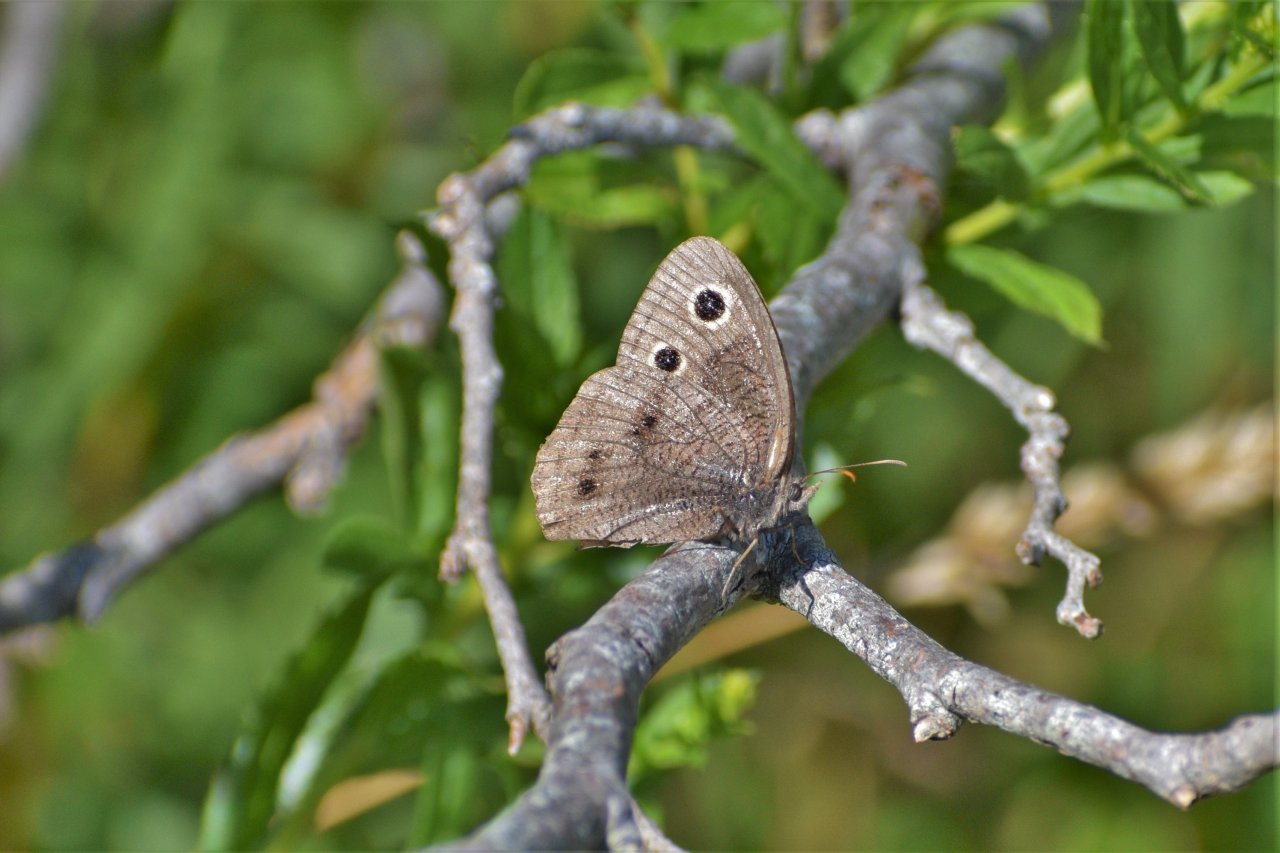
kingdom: Animalia
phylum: Arthropoda
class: Insecta
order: Lepidoptera
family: Nymphalidae
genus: Cercyonis
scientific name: Cercyonis pegala
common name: Common Wood-Nymph
